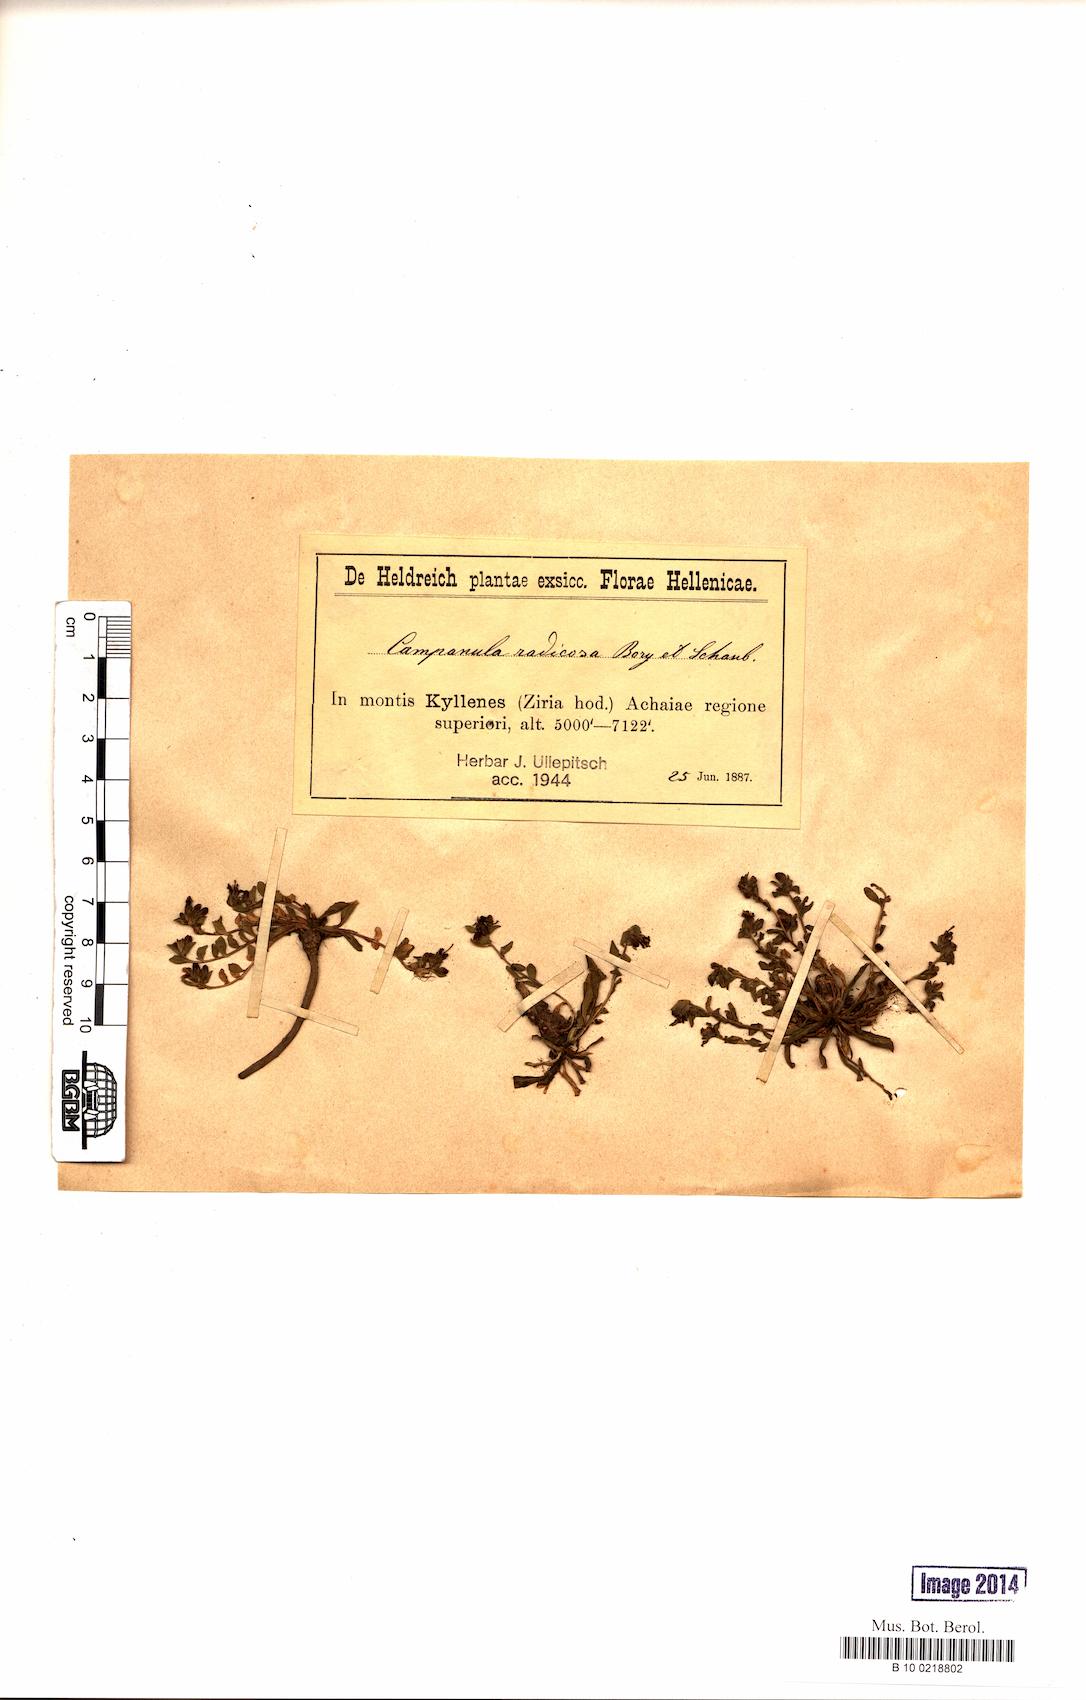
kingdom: Plantae
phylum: Tracheophyta
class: Magnoliopsida
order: Asterales
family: Campanulaceae
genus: Campanula
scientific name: Campanula radicosa
